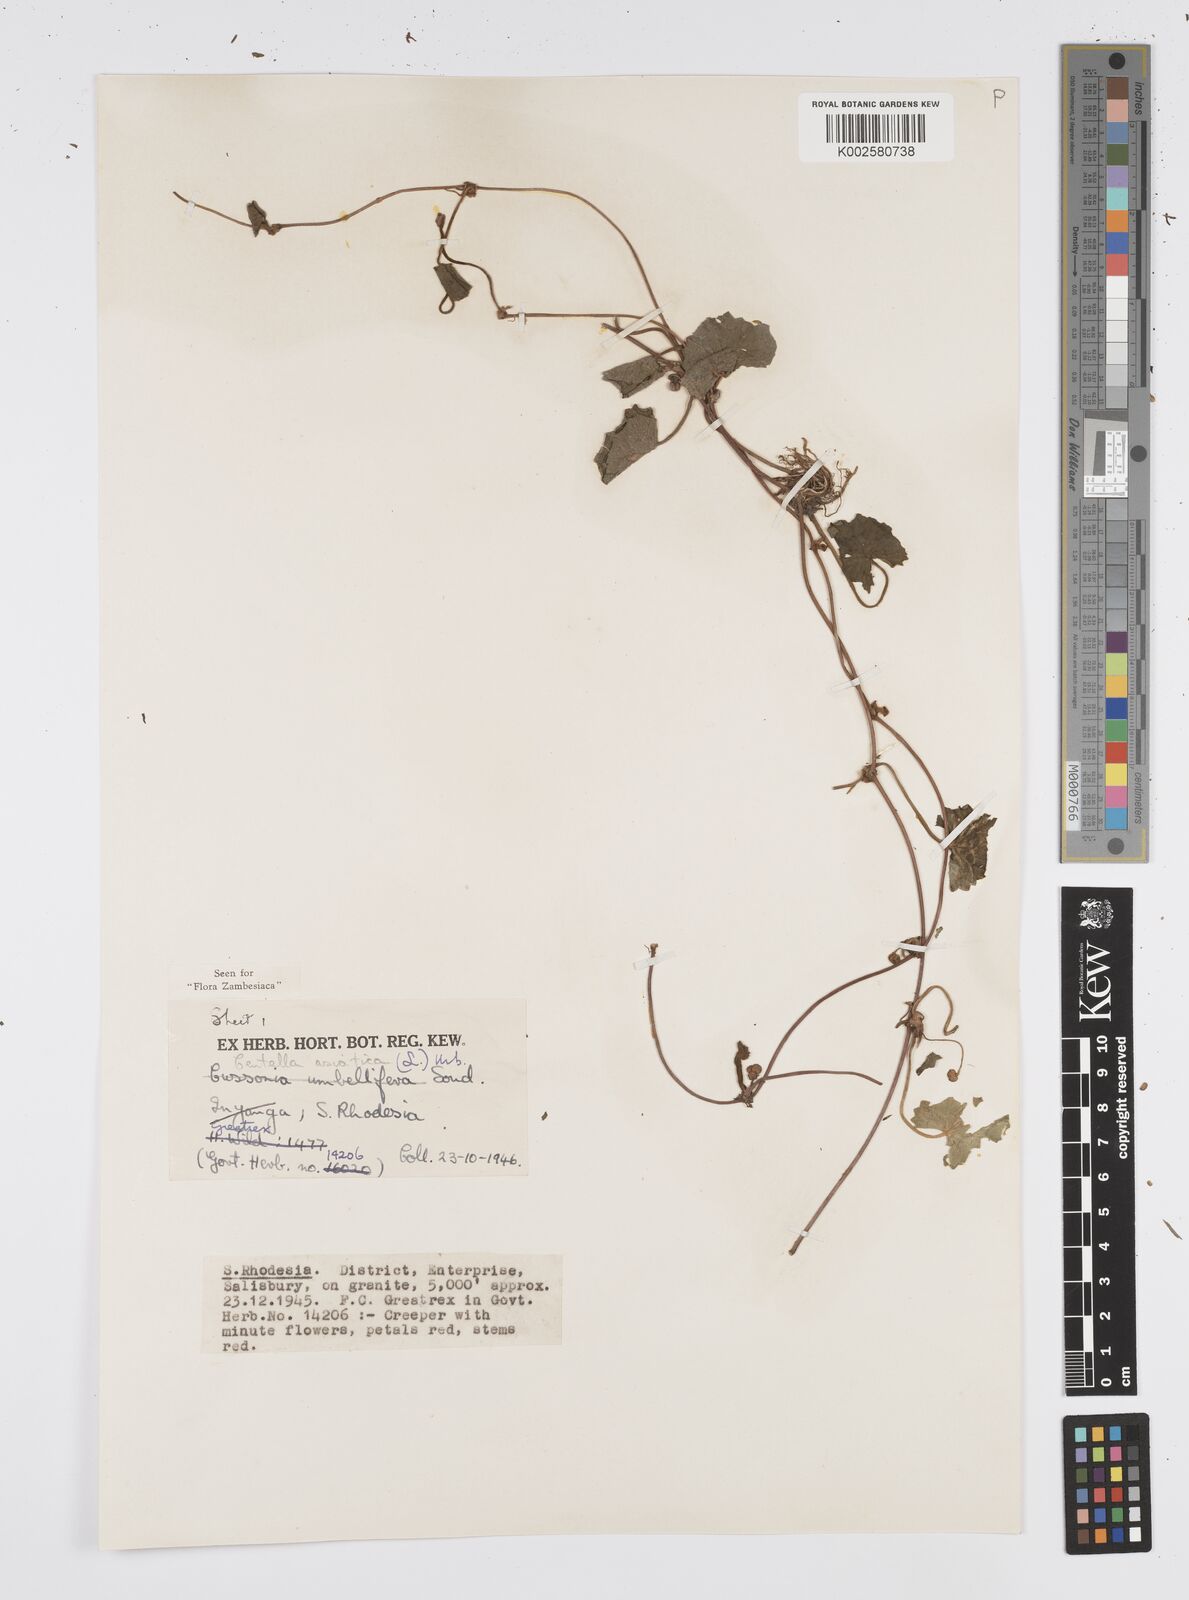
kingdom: Plantae
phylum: Tracheophyta
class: Magnoliopsida
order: Apiales
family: Apiaceae
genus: Centella
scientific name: Centella asiatica
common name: Spadeleaf
